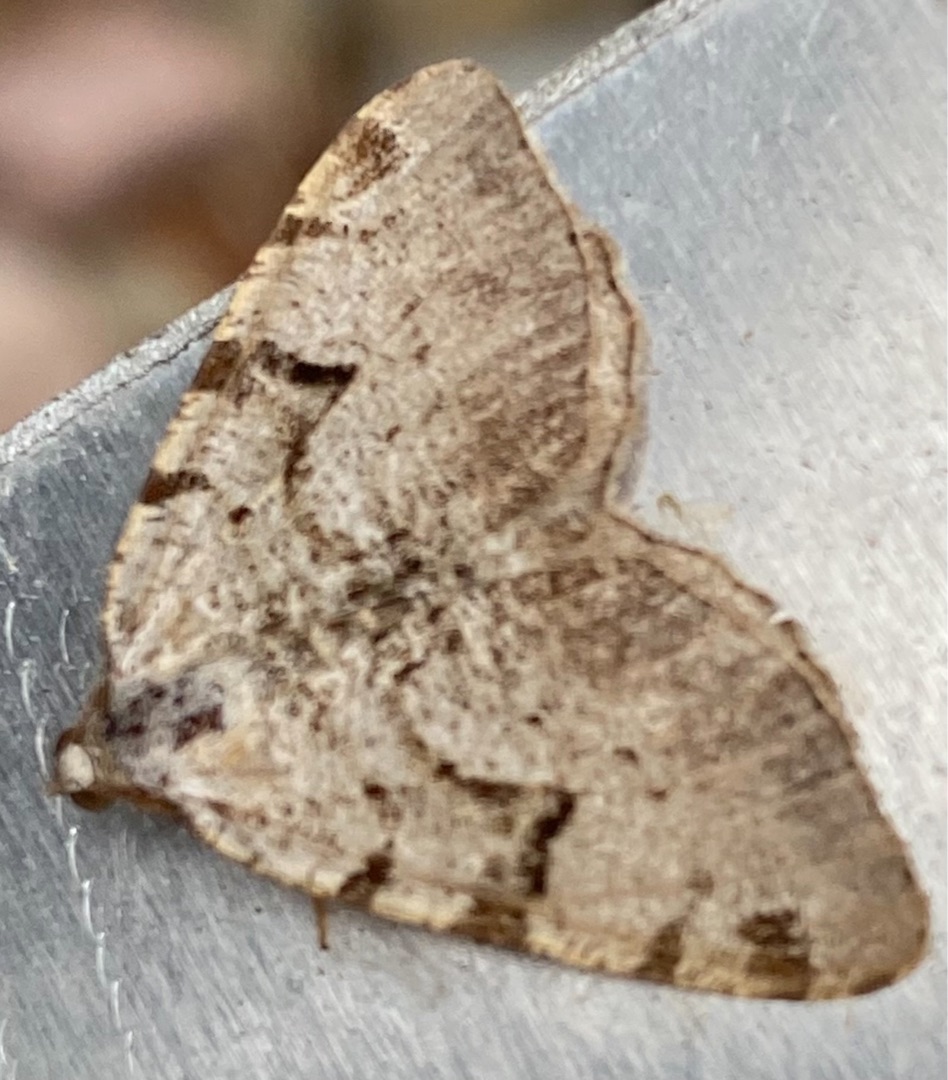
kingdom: Animalia
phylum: Arthropoda
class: Insecta
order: Lepidoptera
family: Geometridae
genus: Macaria
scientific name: Macaria wauaria
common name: Lille stikkelsbærmåler
